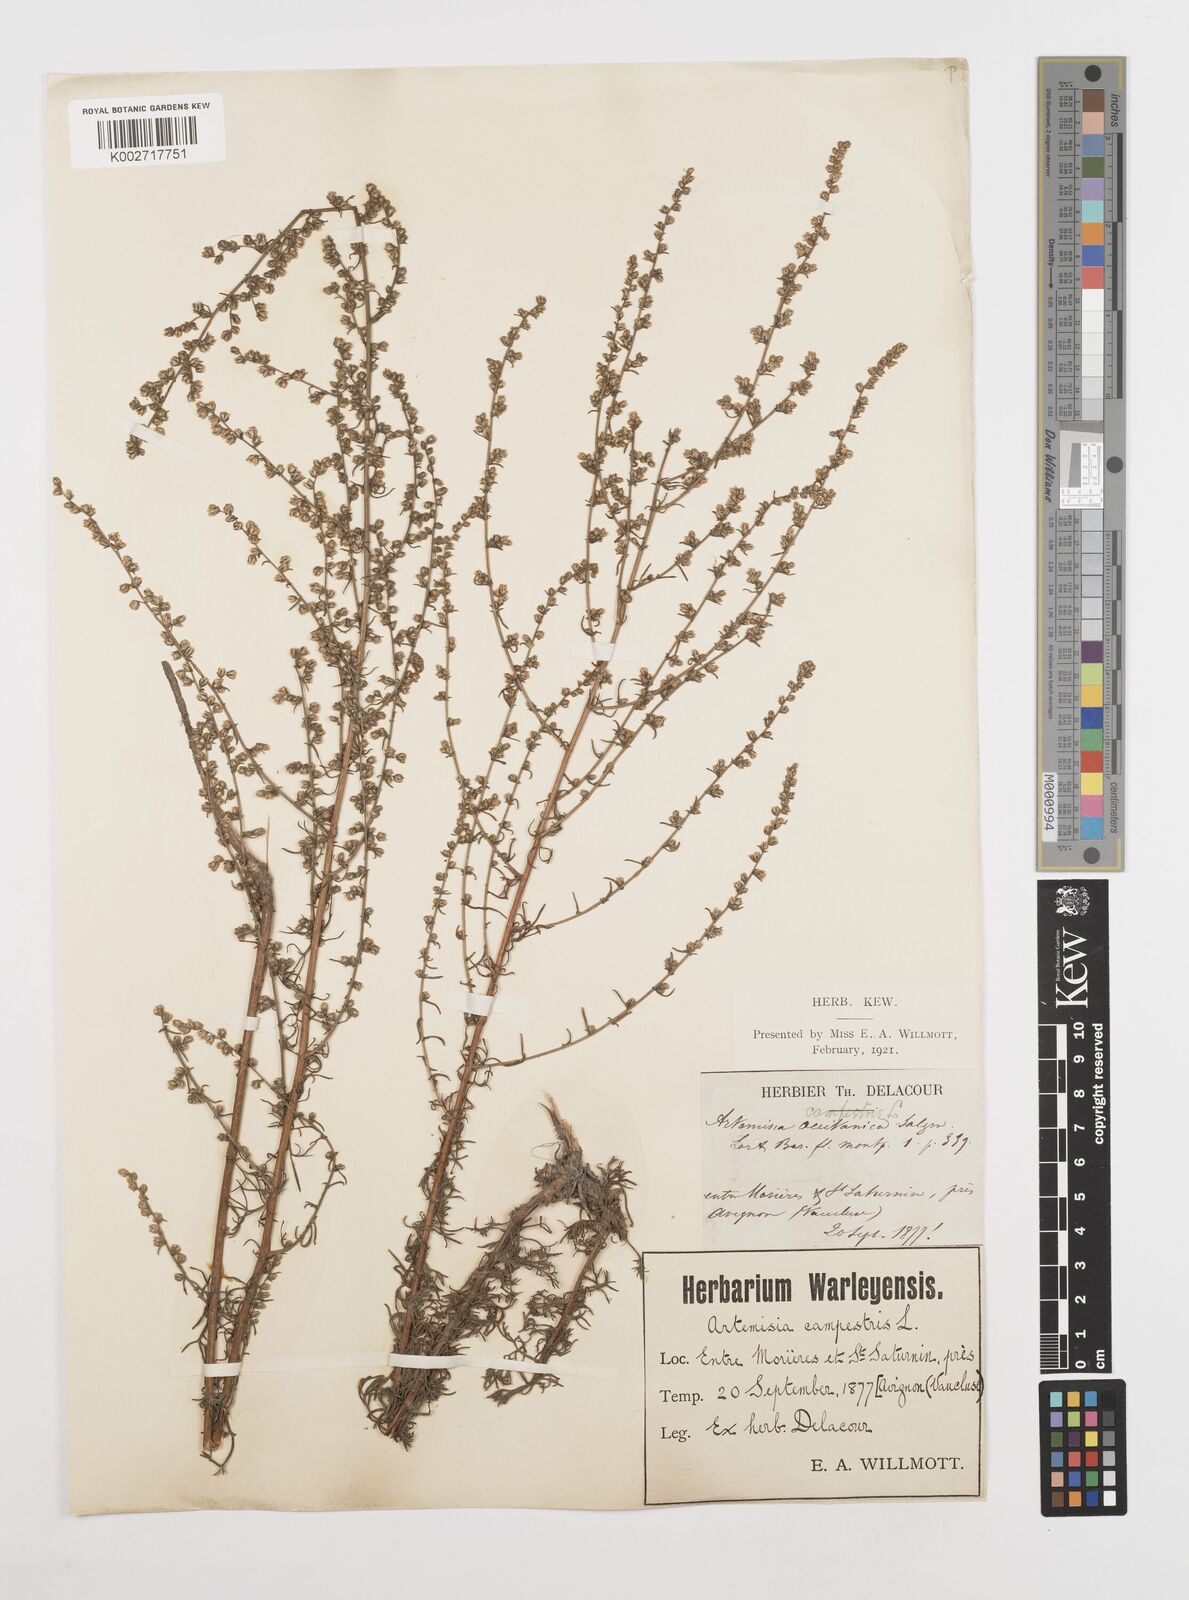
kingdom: Plantae
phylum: Tracheophyta
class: Magnoliopsida
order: Asterales
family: Asteraceae
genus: Artemisia
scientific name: Artemisia campestris
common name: Field wormwood
